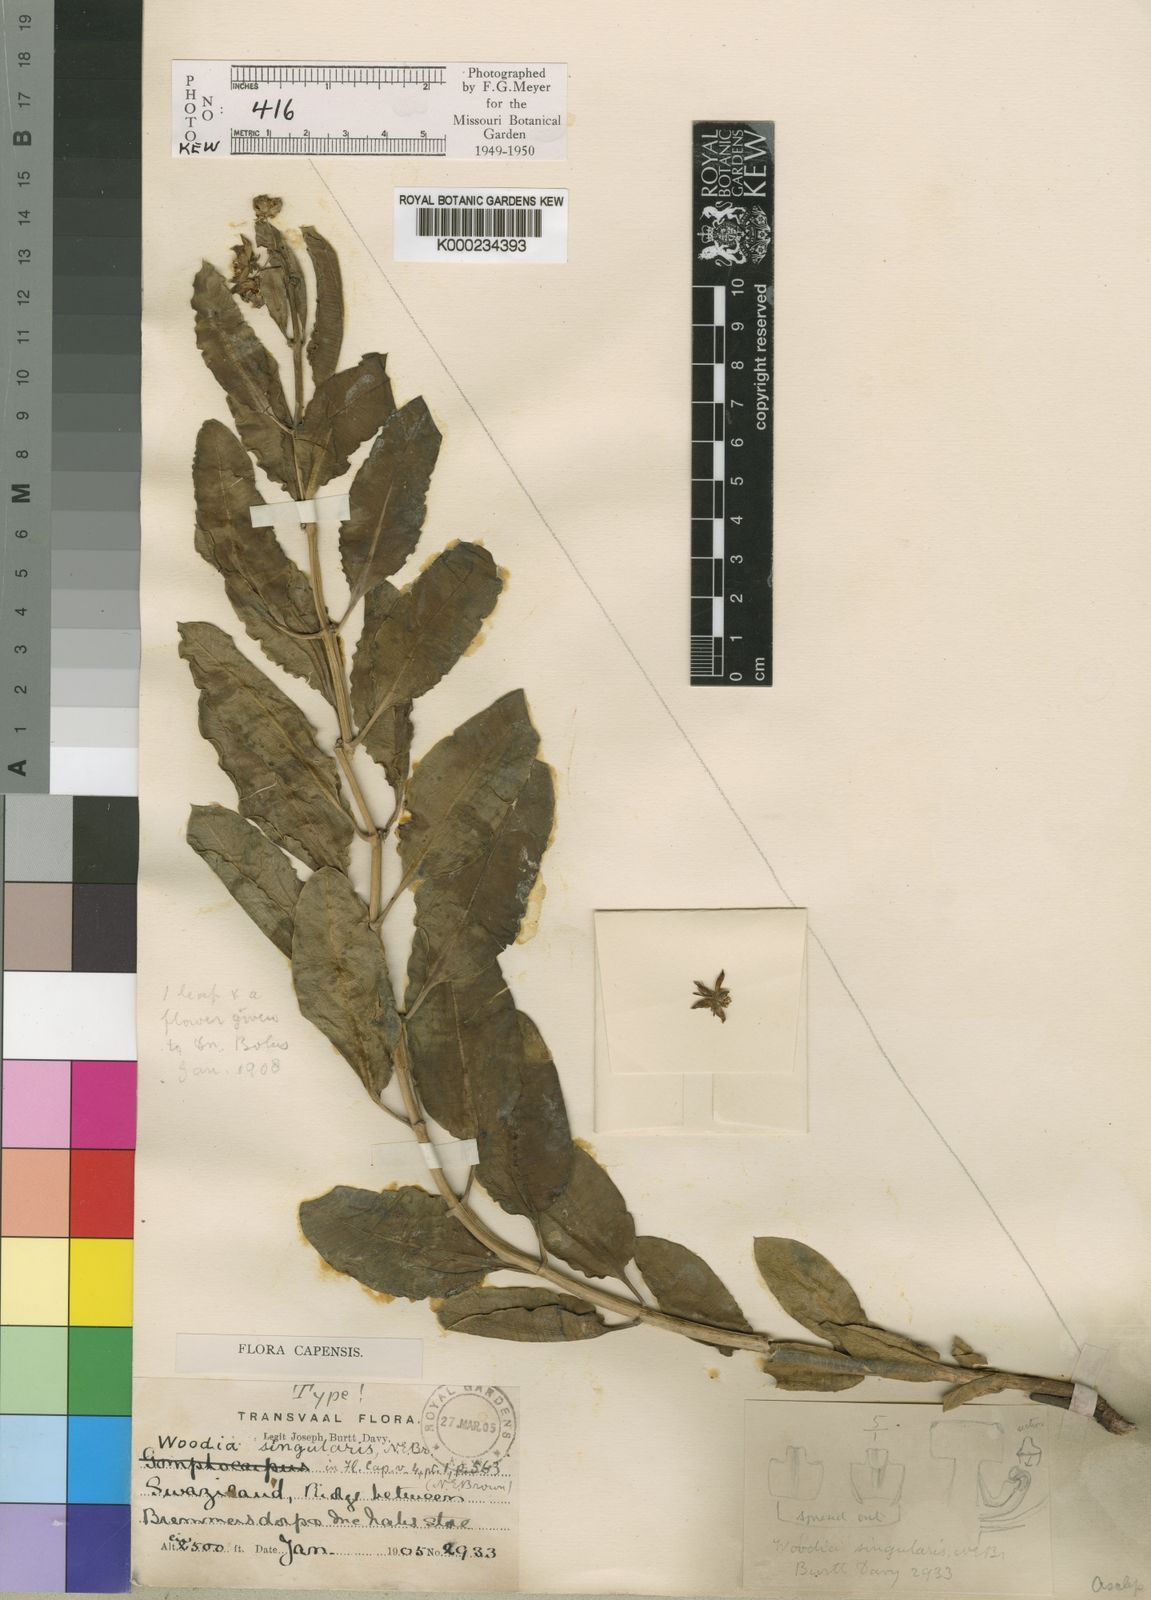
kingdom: Plantae
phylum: Tracheophyta
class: Magnoliopsida
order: Gentianales
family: Apocynaceae
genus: Woodia
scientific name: Woodia singularis
